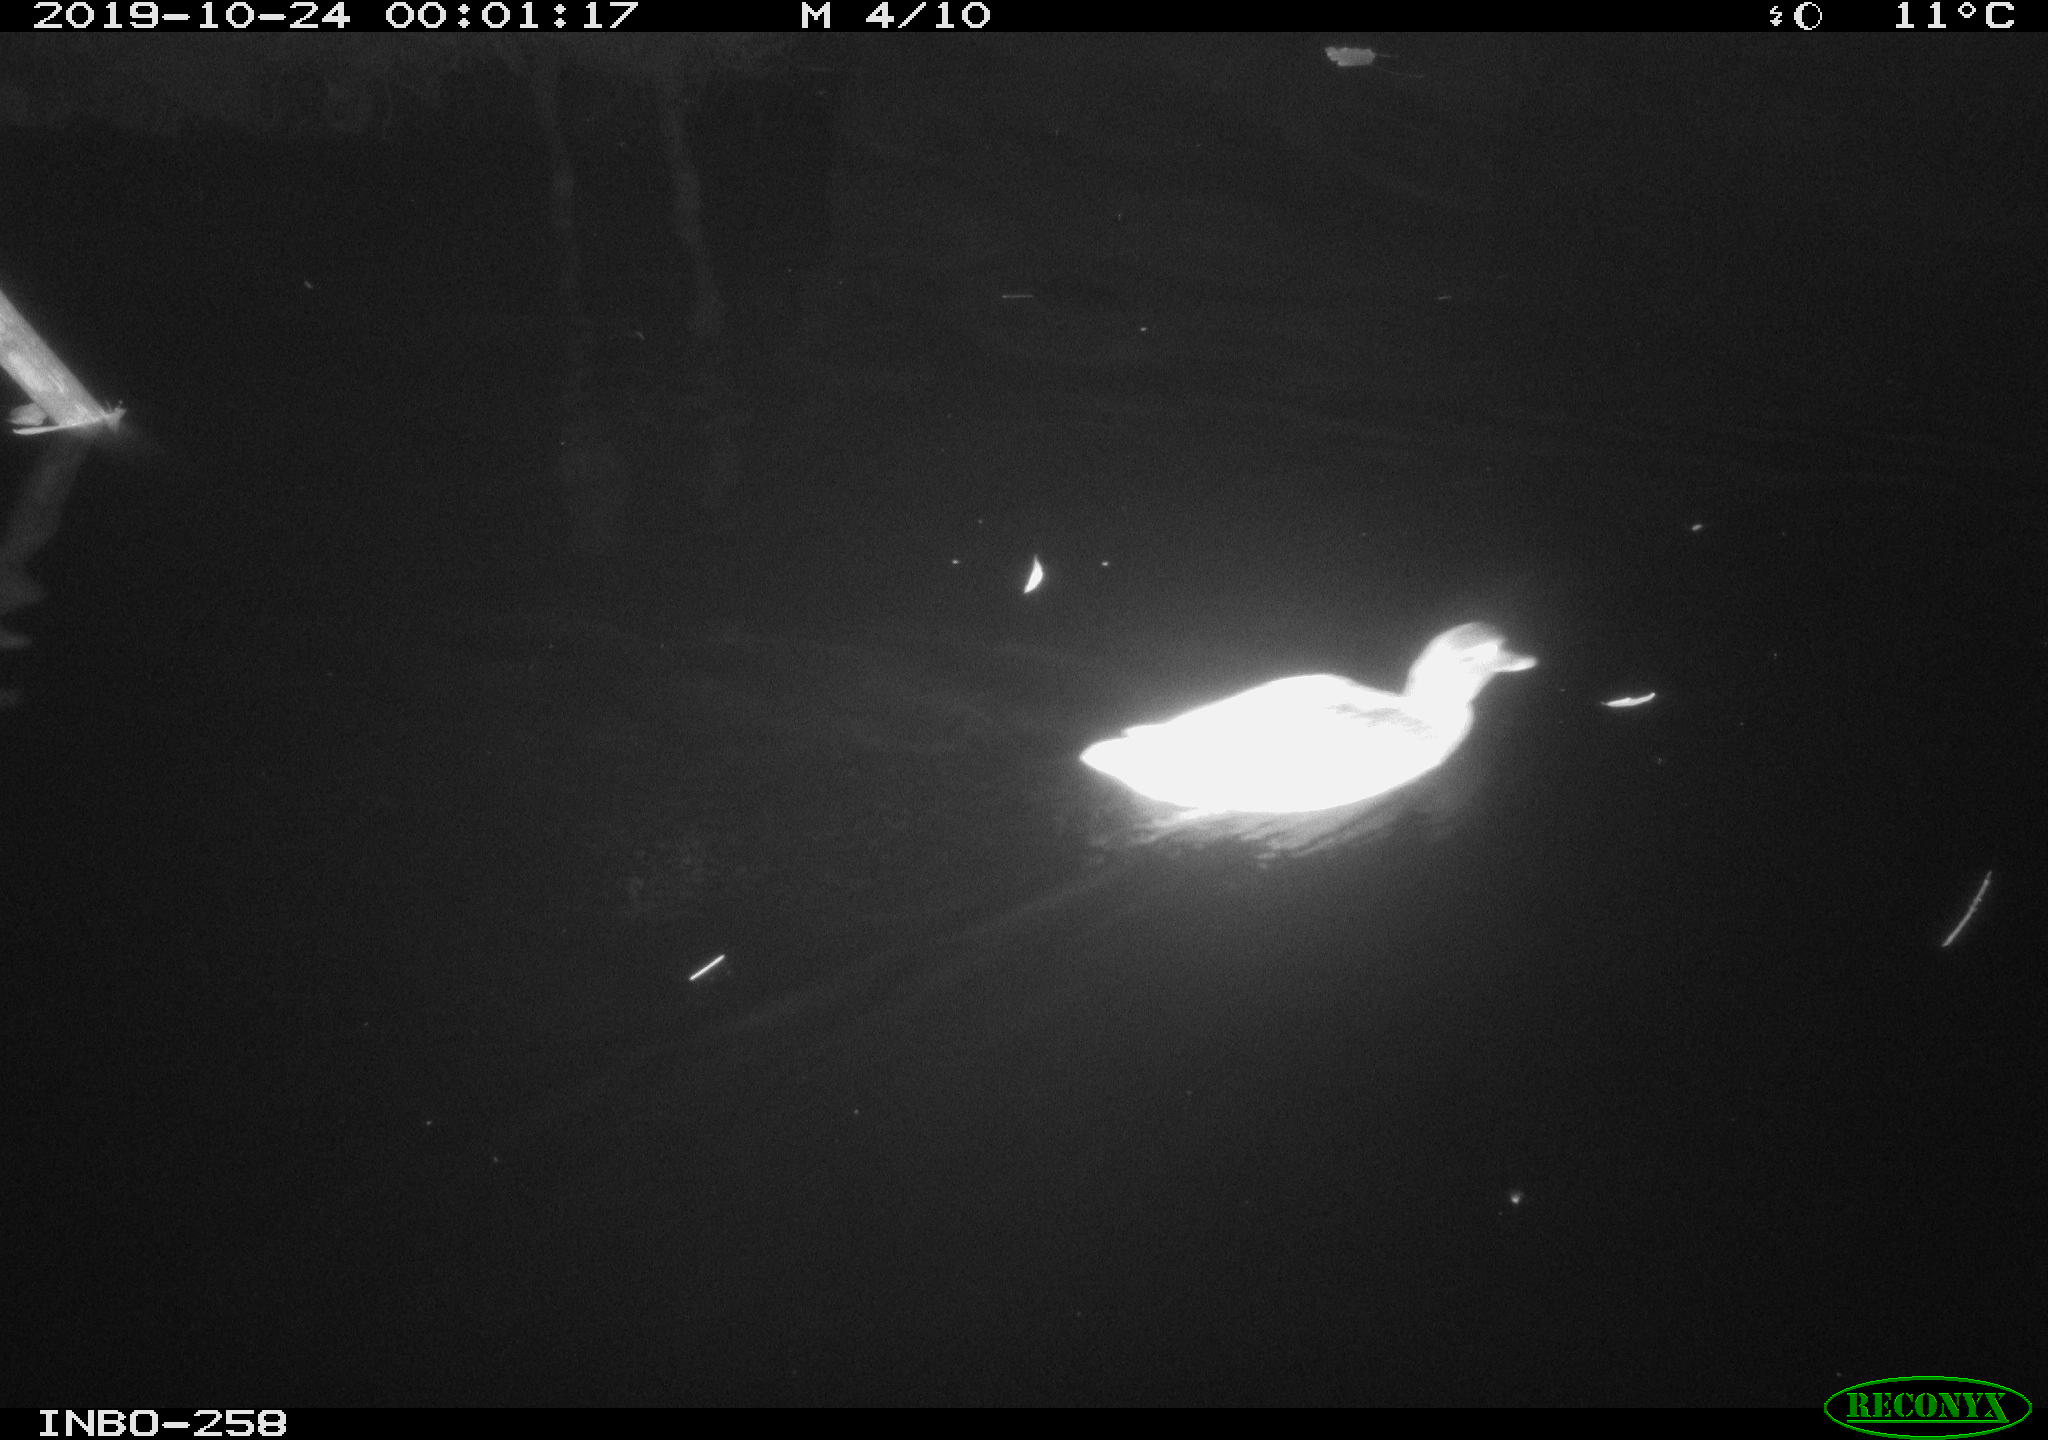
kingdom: Animalia
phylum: Chordata
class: Aves
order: Anseriformes
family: Anatidae
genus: Anas
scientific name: Anas platyrhynchos
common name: Mallard
